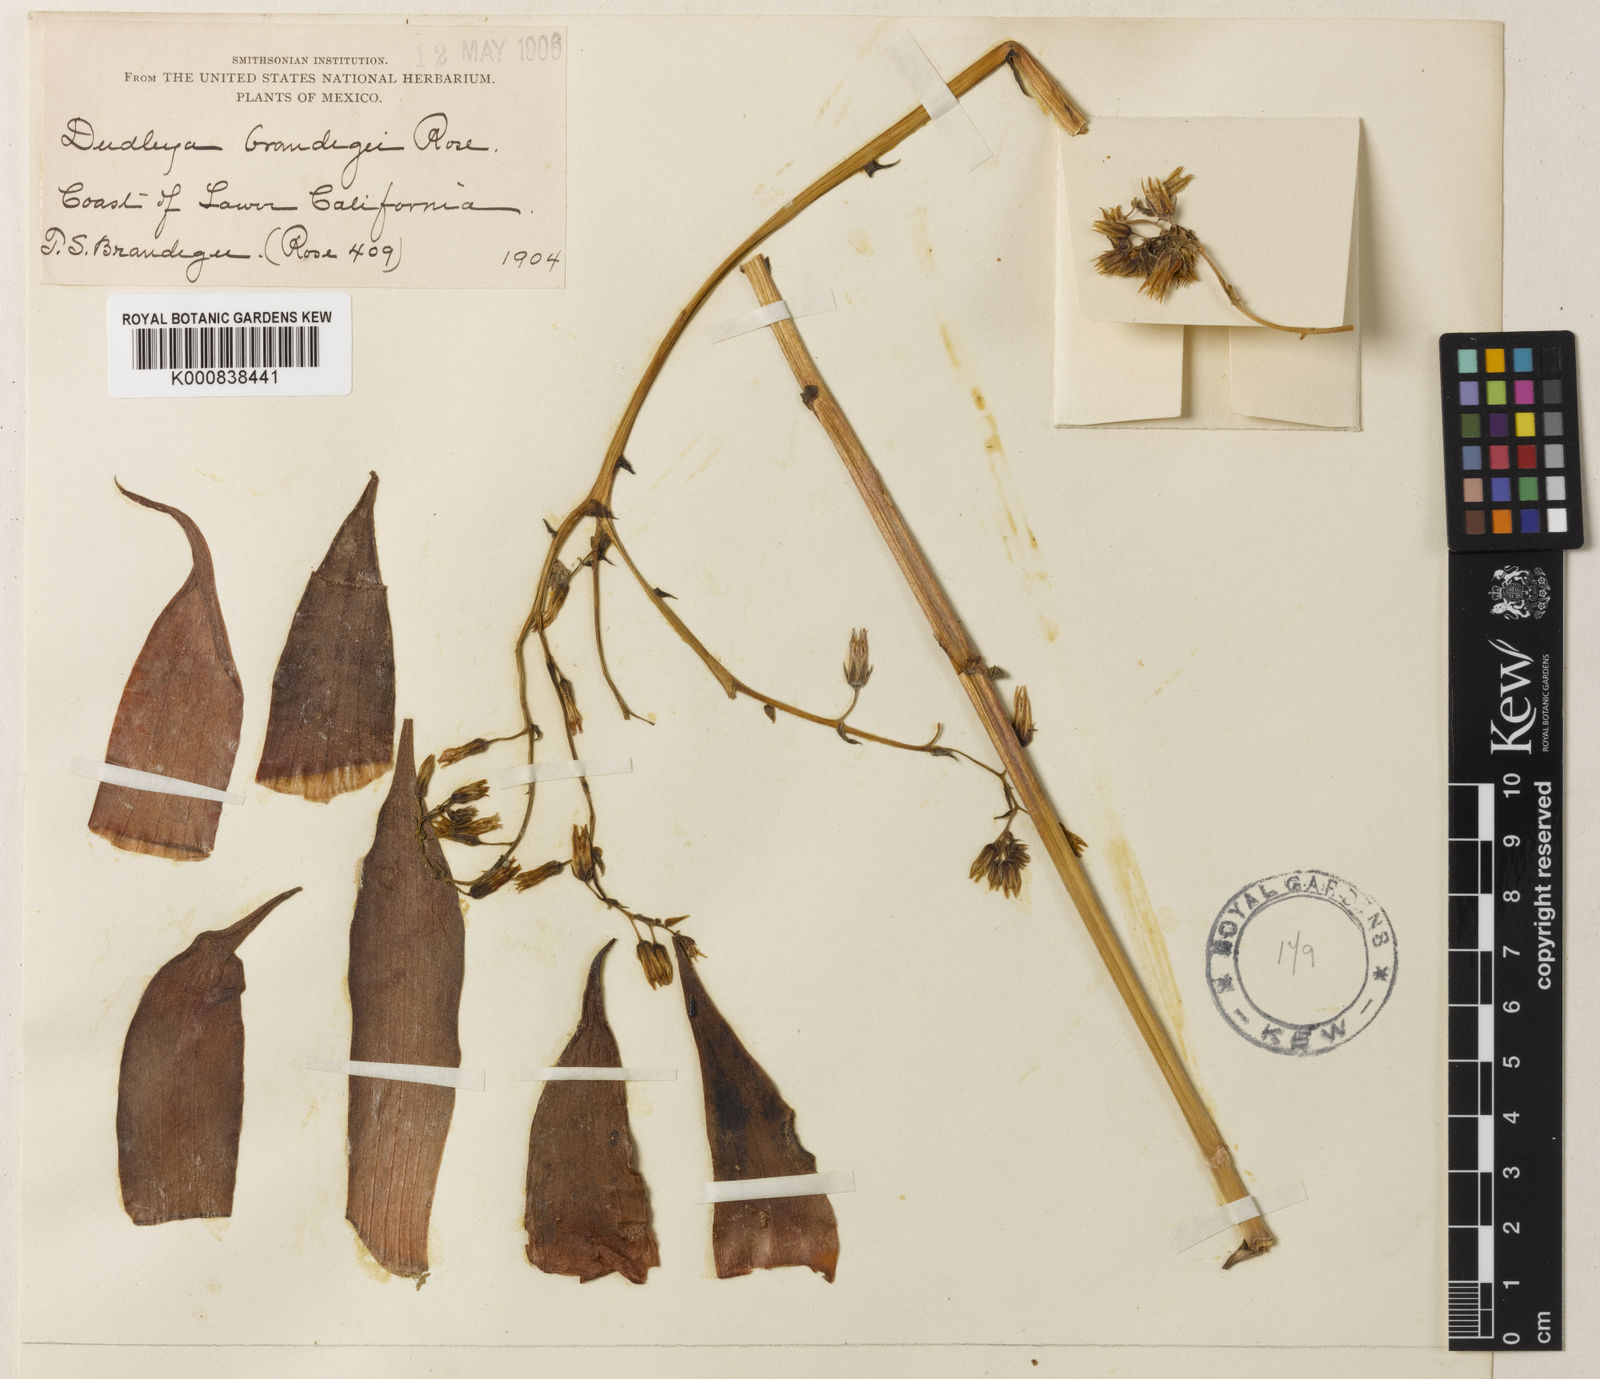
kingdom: Plantae
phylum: Tracheophyta
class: Magnoliopsida
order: Saxifragales
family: Crassulaceae
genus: Dudleya
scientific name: Dudleya acuminata
